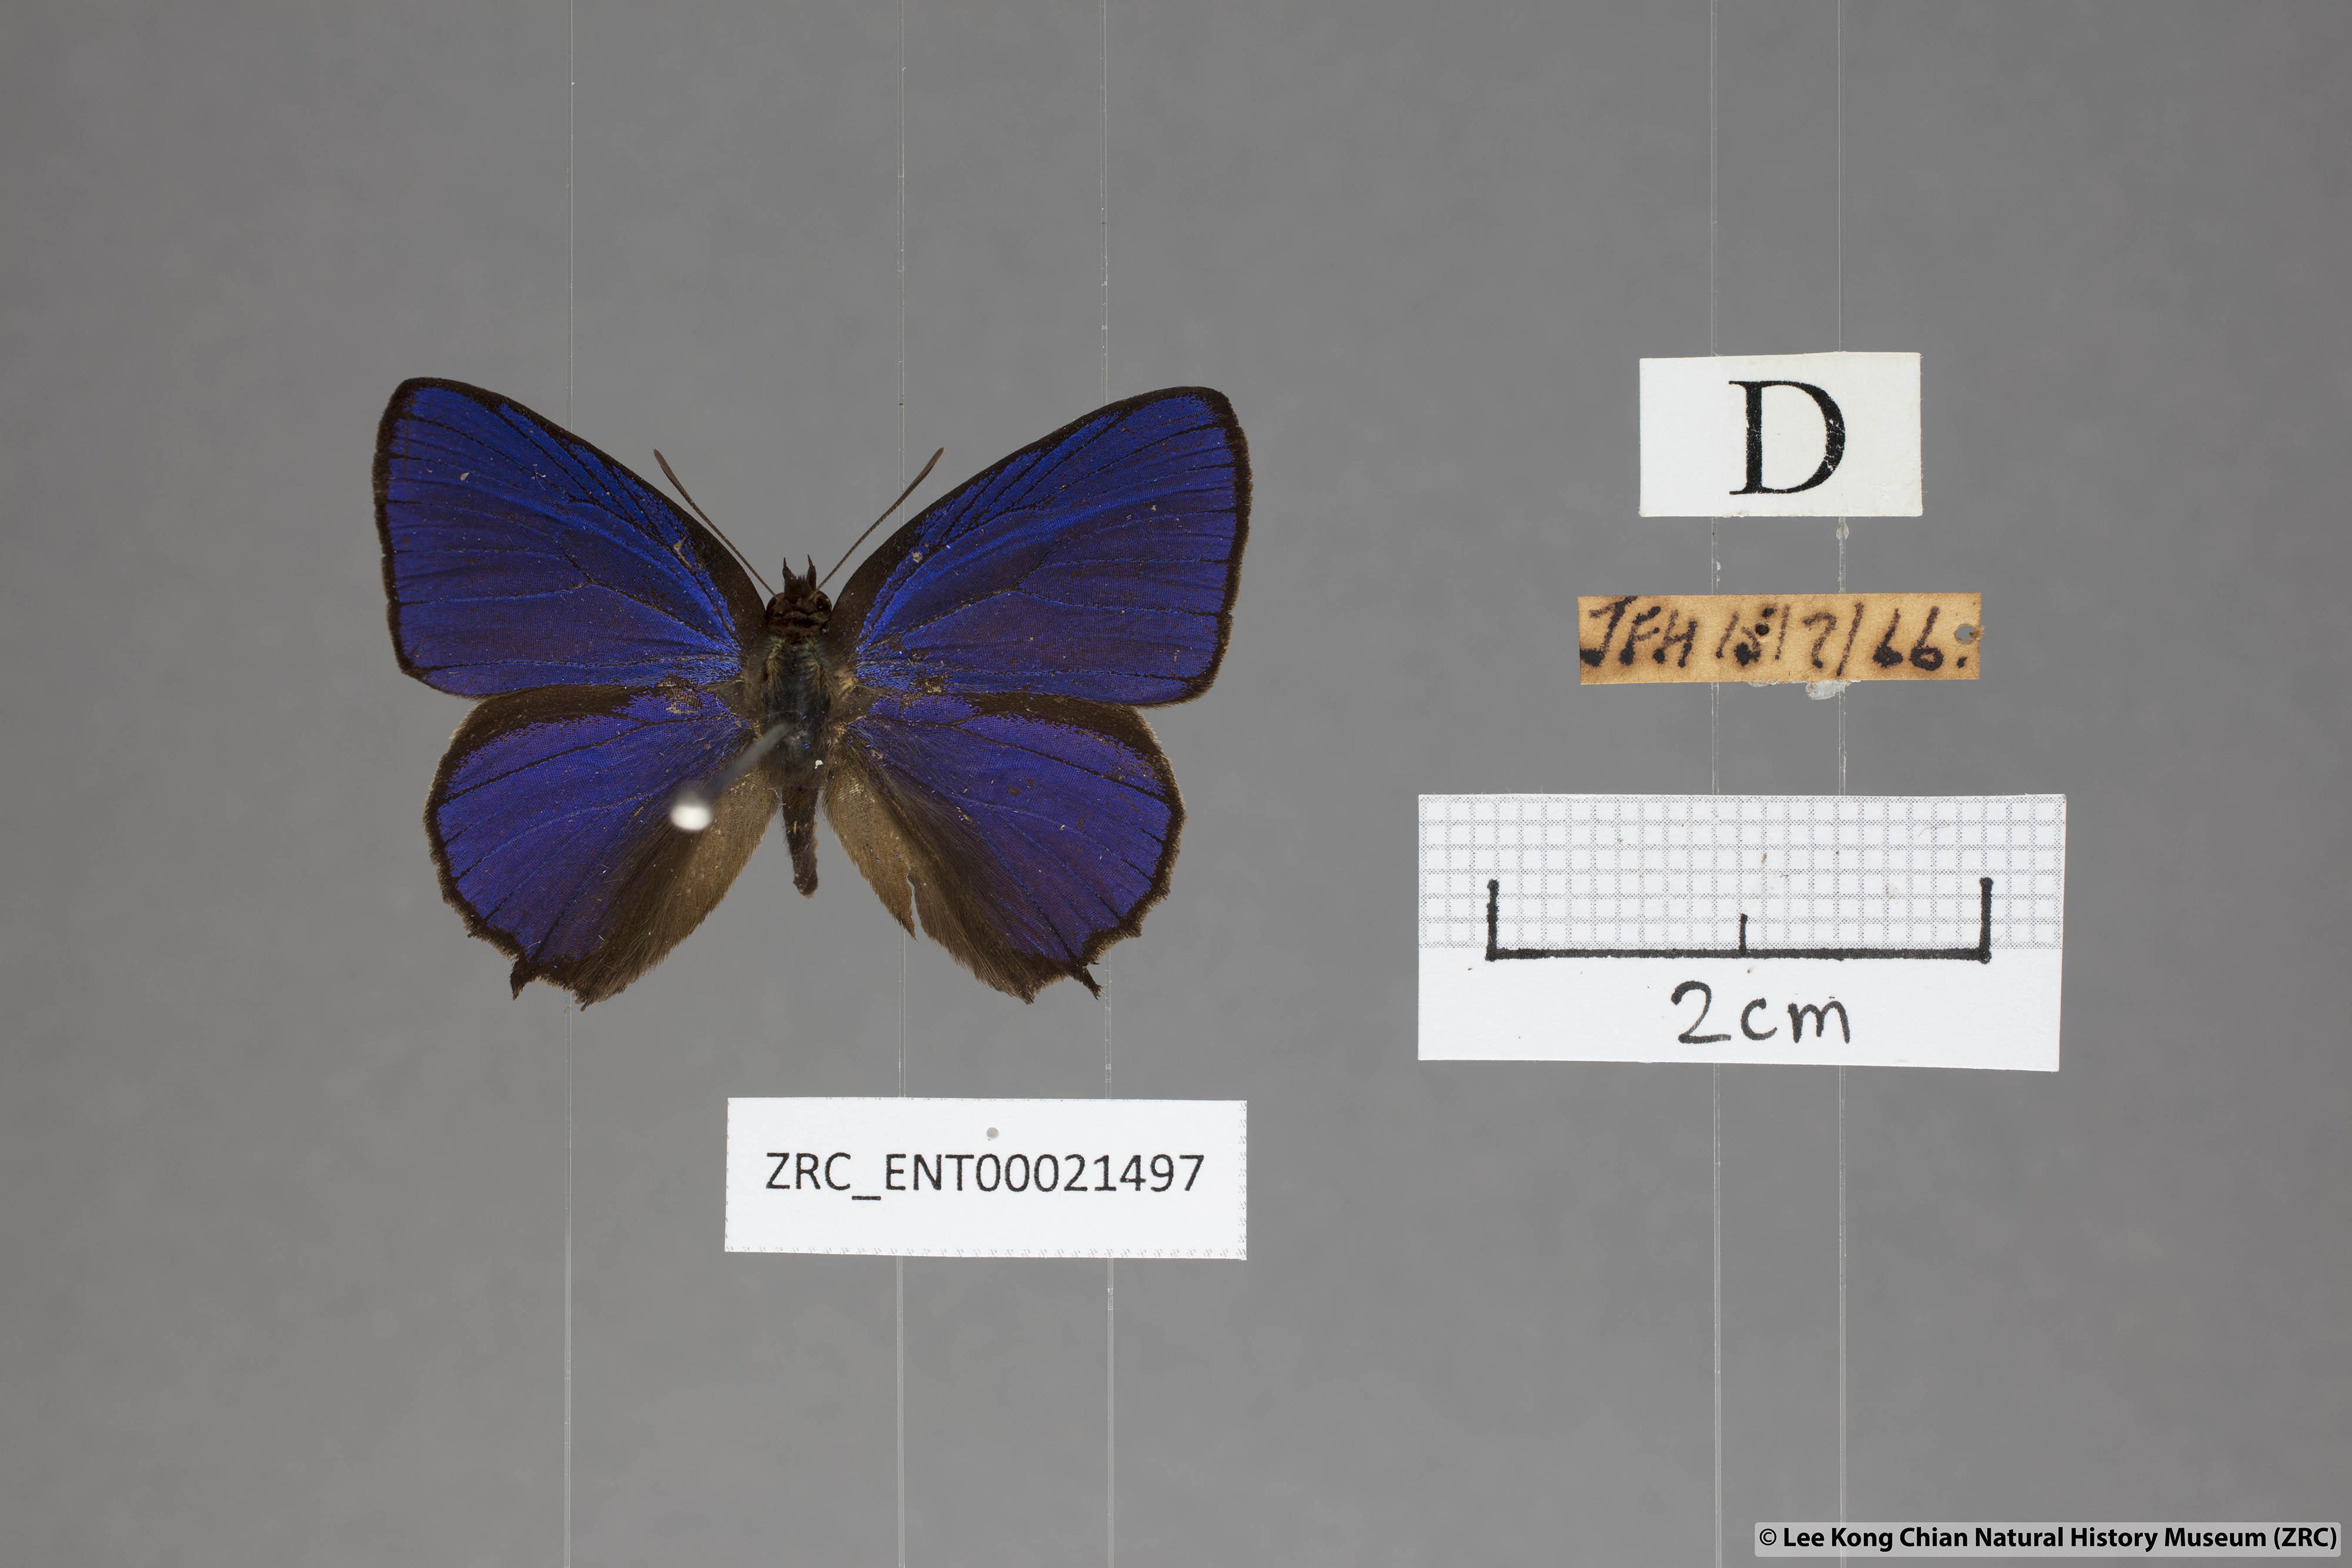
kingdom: Animalia
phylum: Arthropoda
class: Insecta
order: Lepidoptera
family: Lycaenidae
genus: Flos
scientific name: Flos
